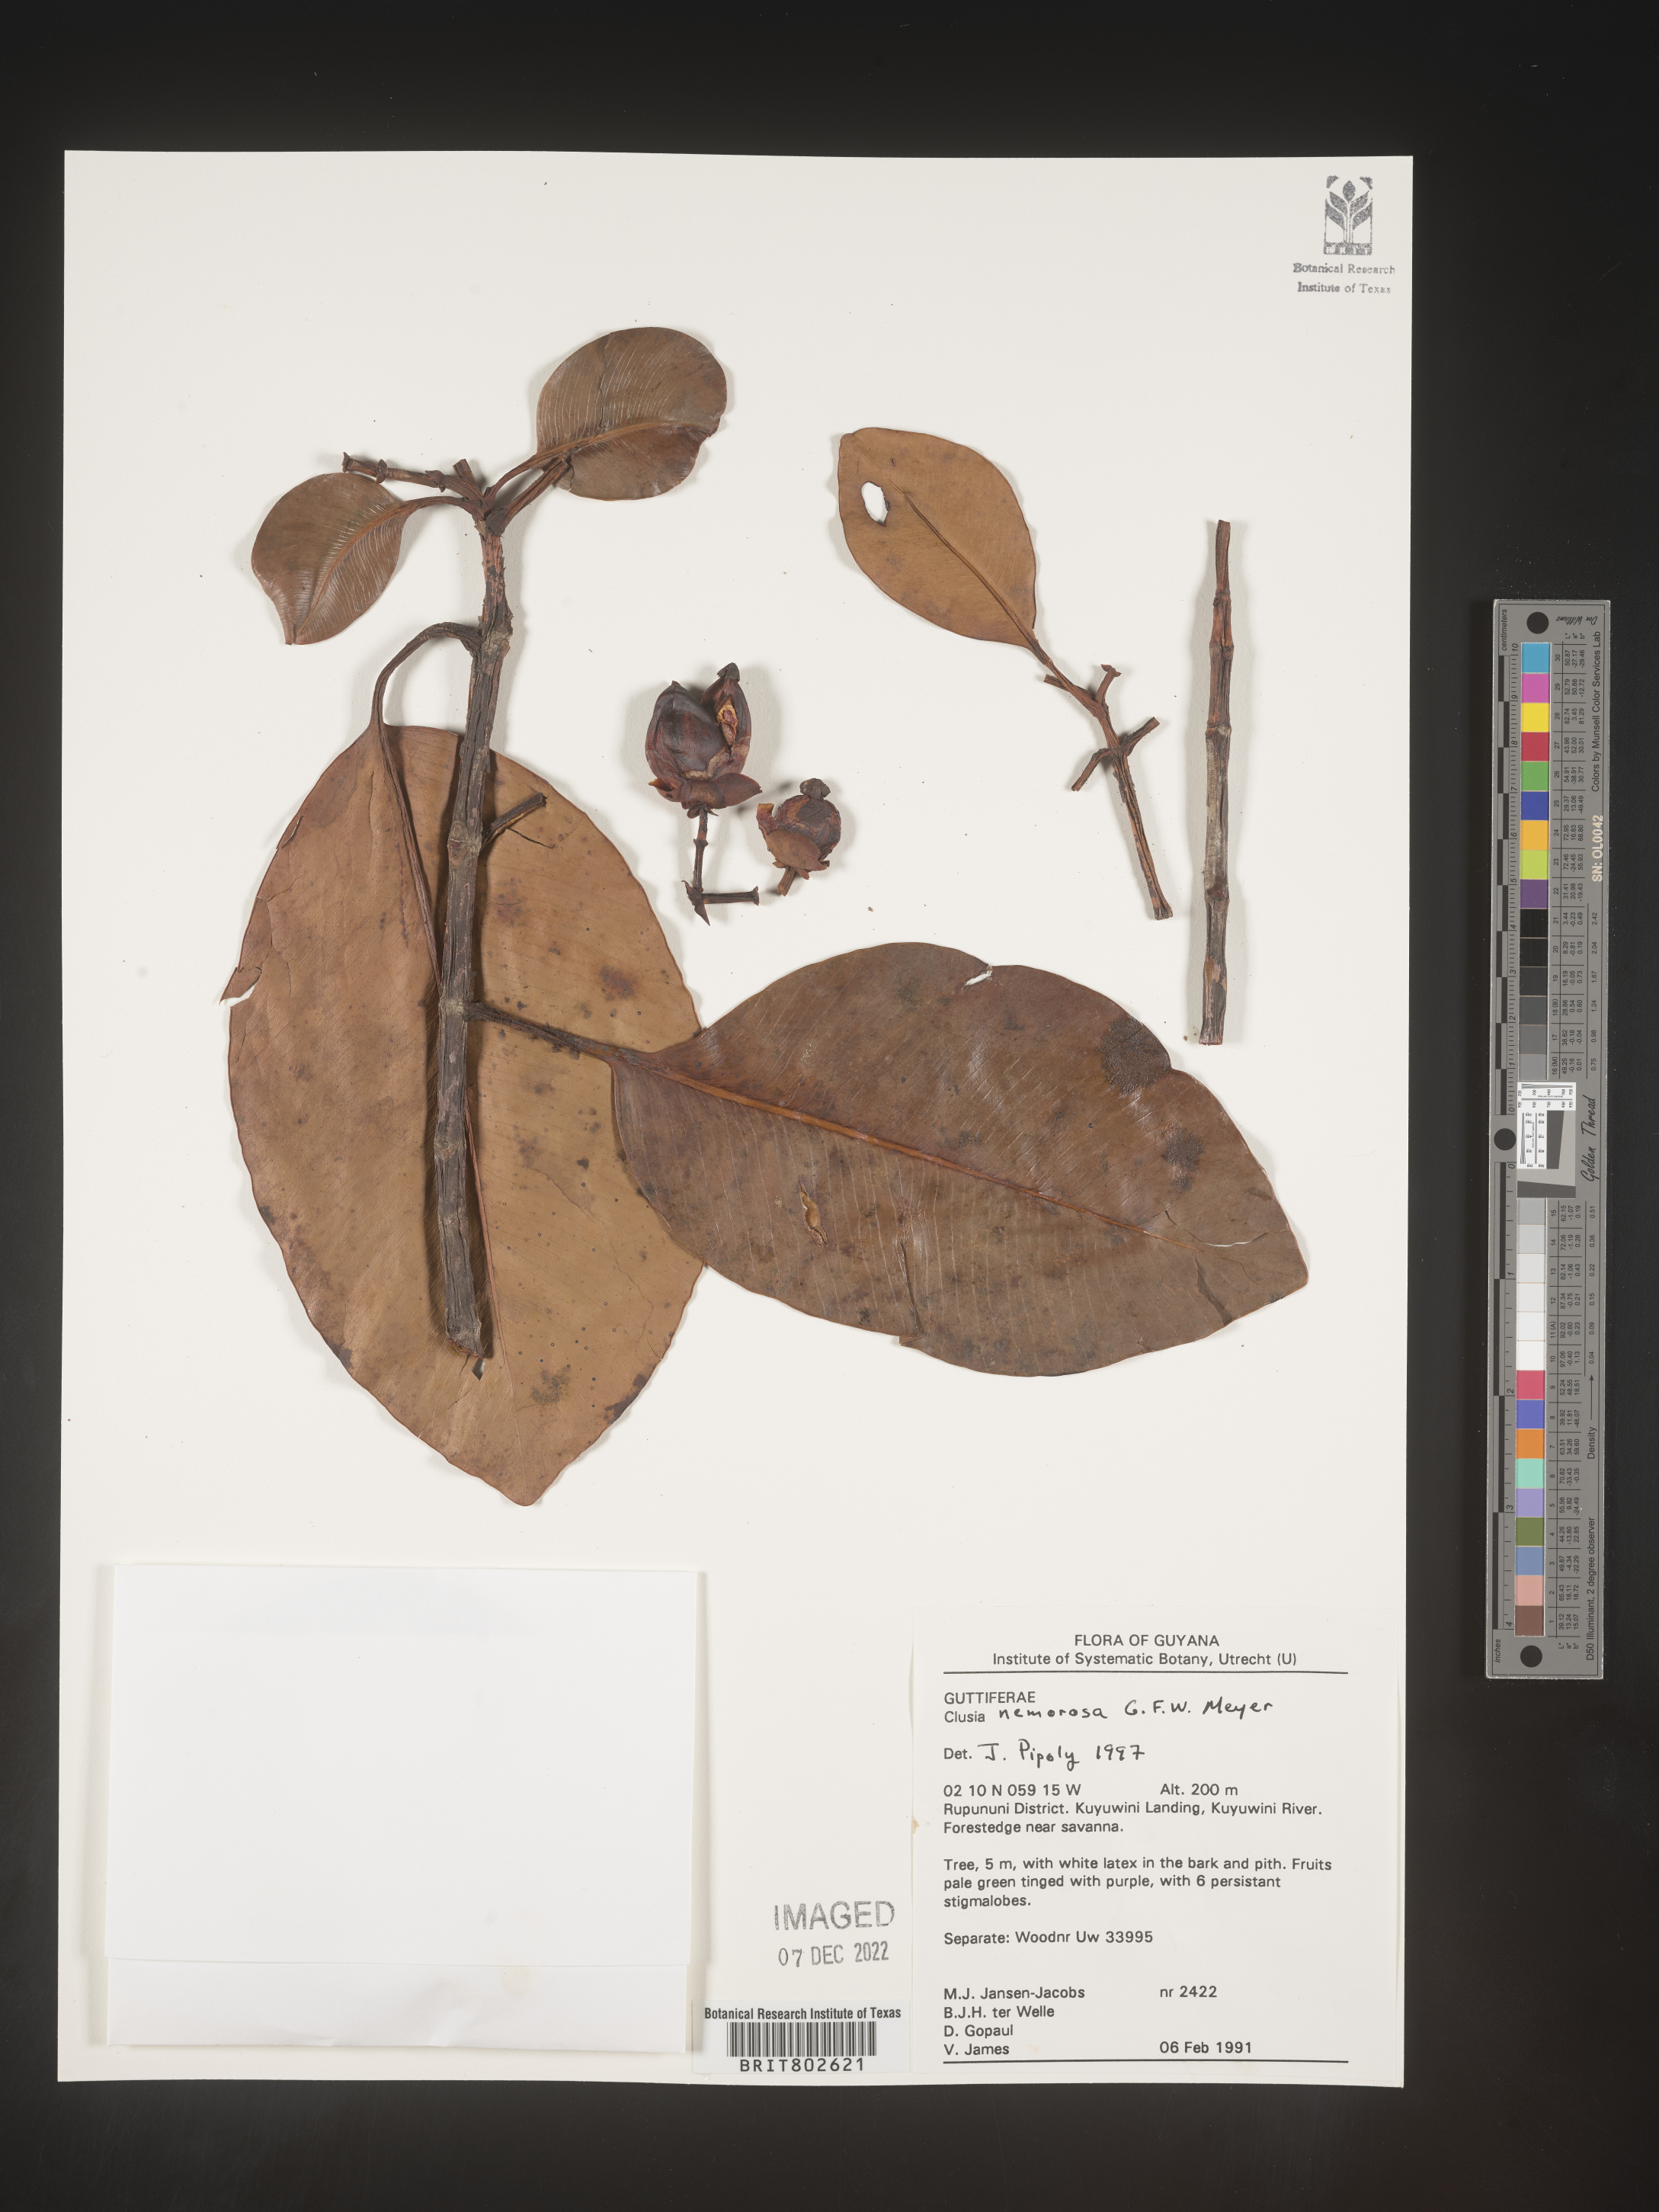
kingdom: Plantae
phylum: Tracheophyta
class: Magnoliopsida
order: Malpighiales
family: Clusiaceae
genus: Clusia
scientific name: Clusia nemorosa
